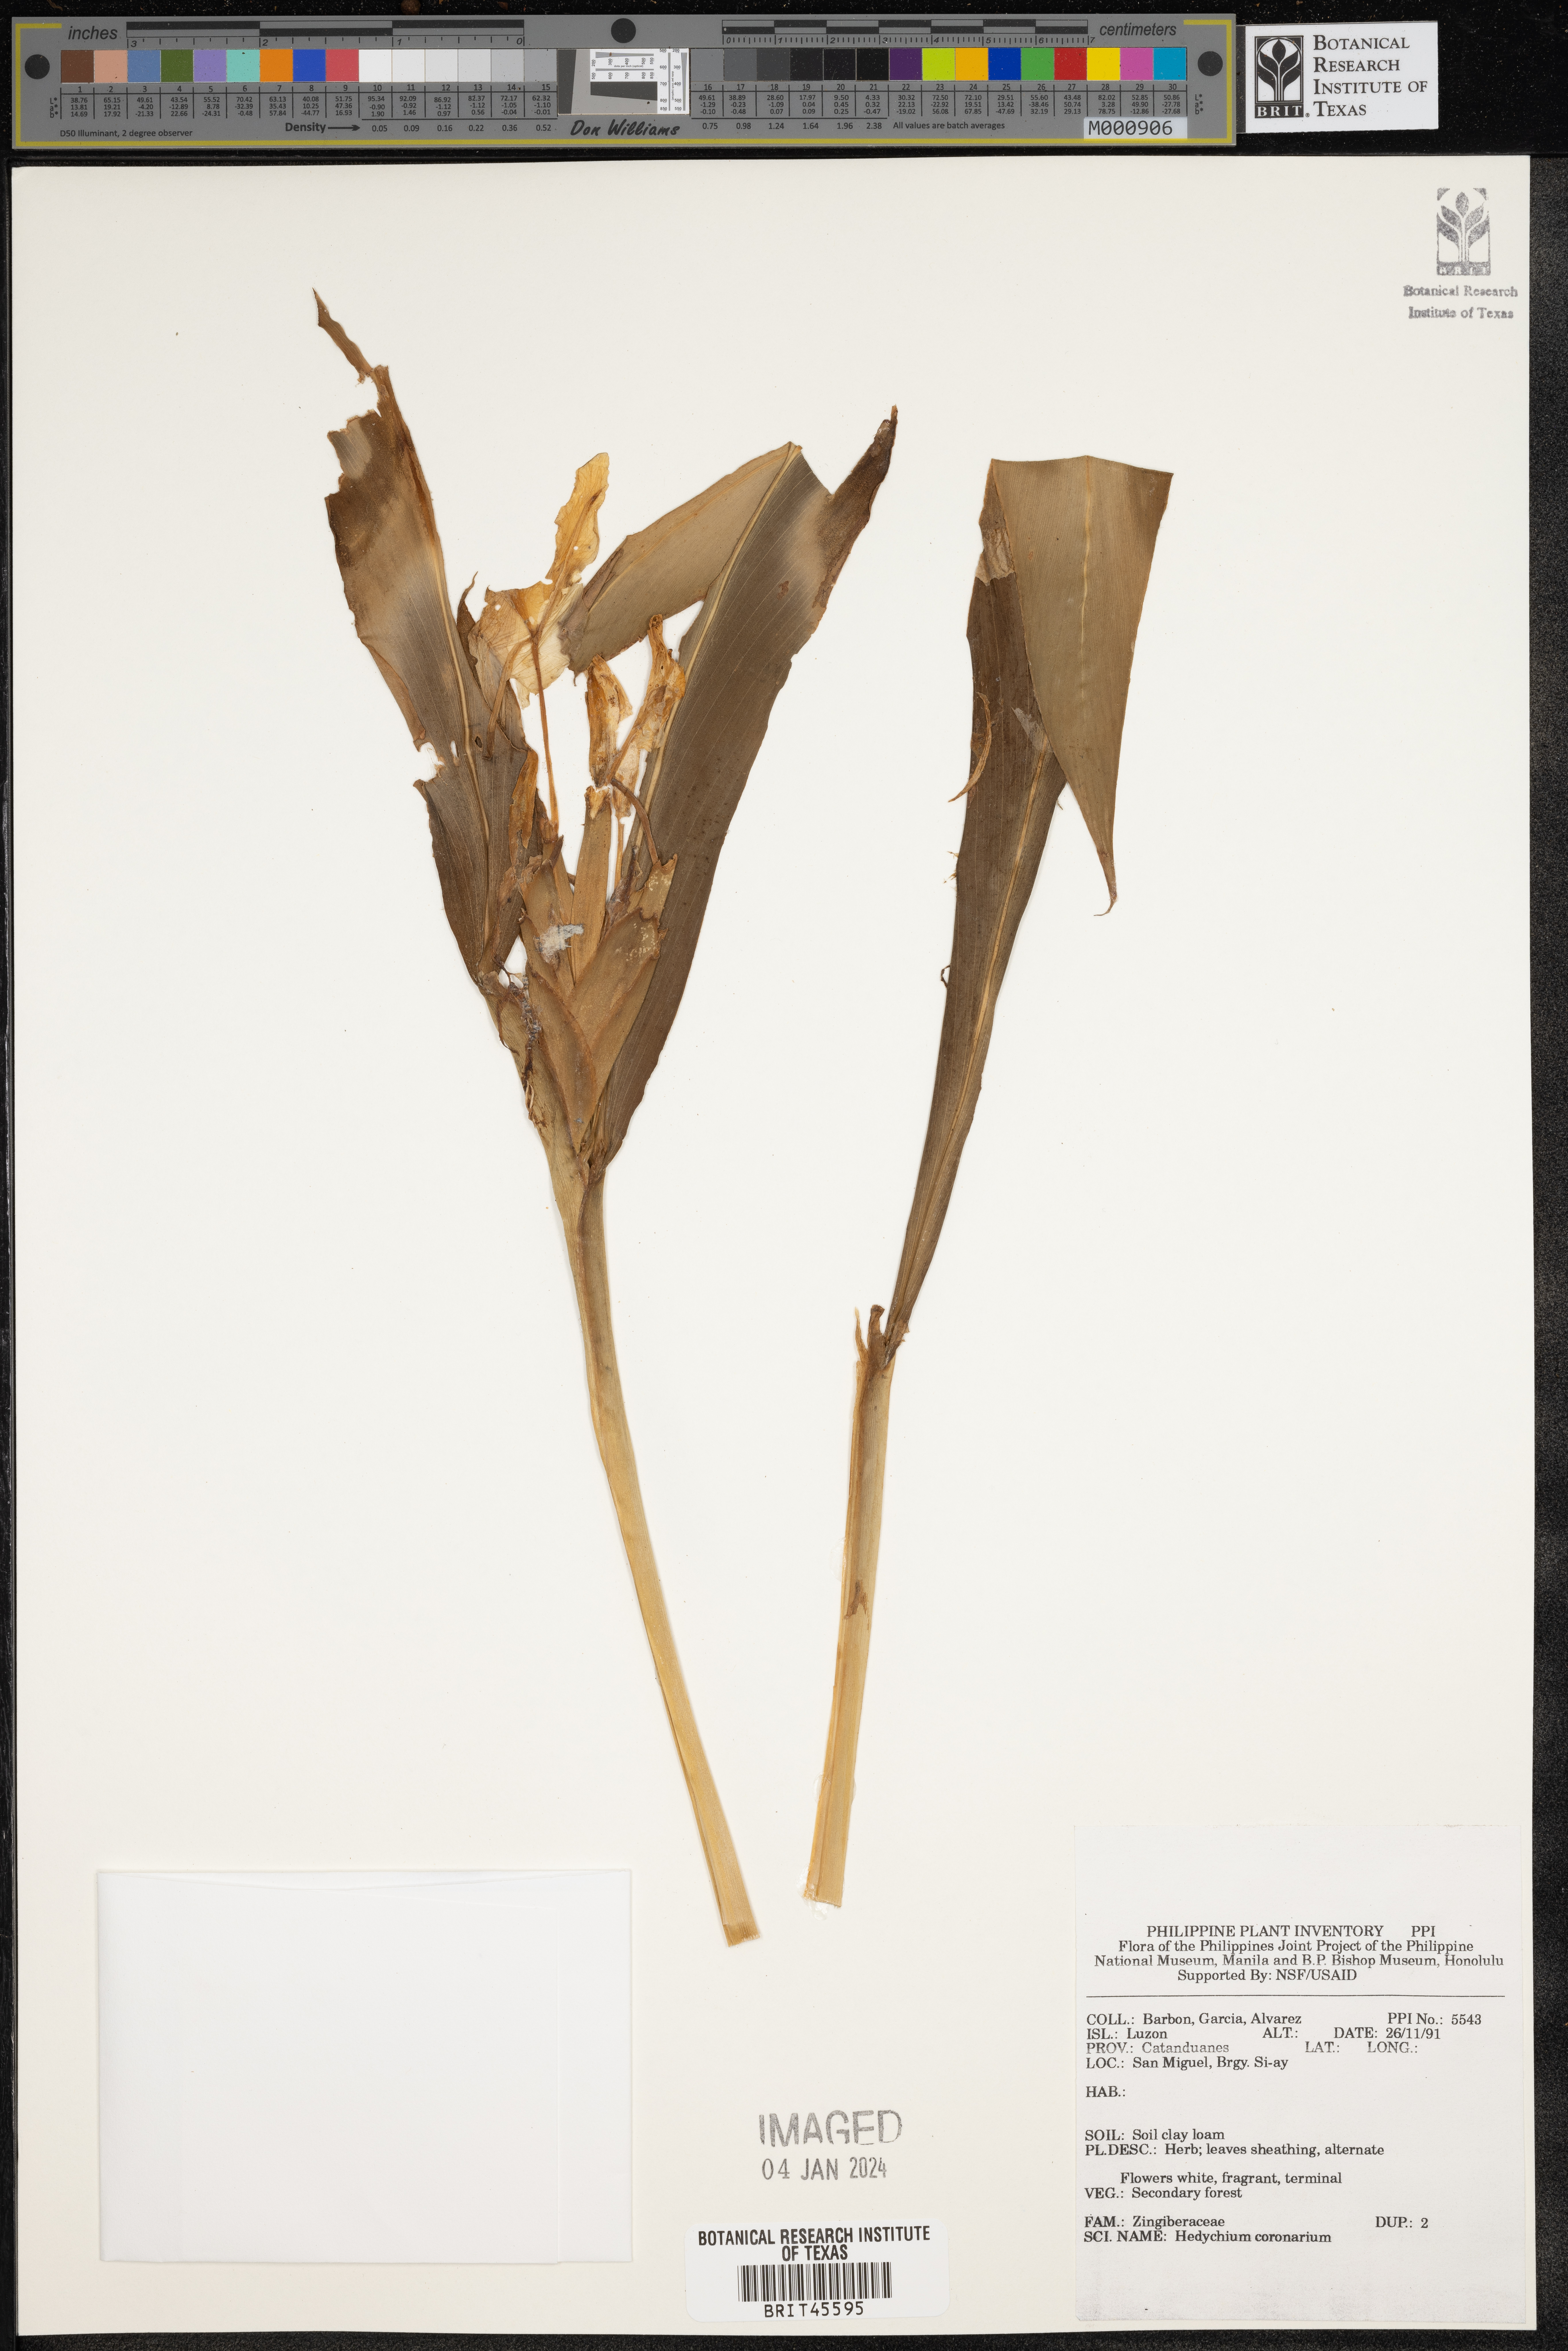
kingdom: Plantae
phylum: Tracheophyta
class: Liliopsida
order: Zingiberales
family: Zingiberaceae
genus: Hedychium
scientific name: Hedychium coronarium
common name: White garland-lily
